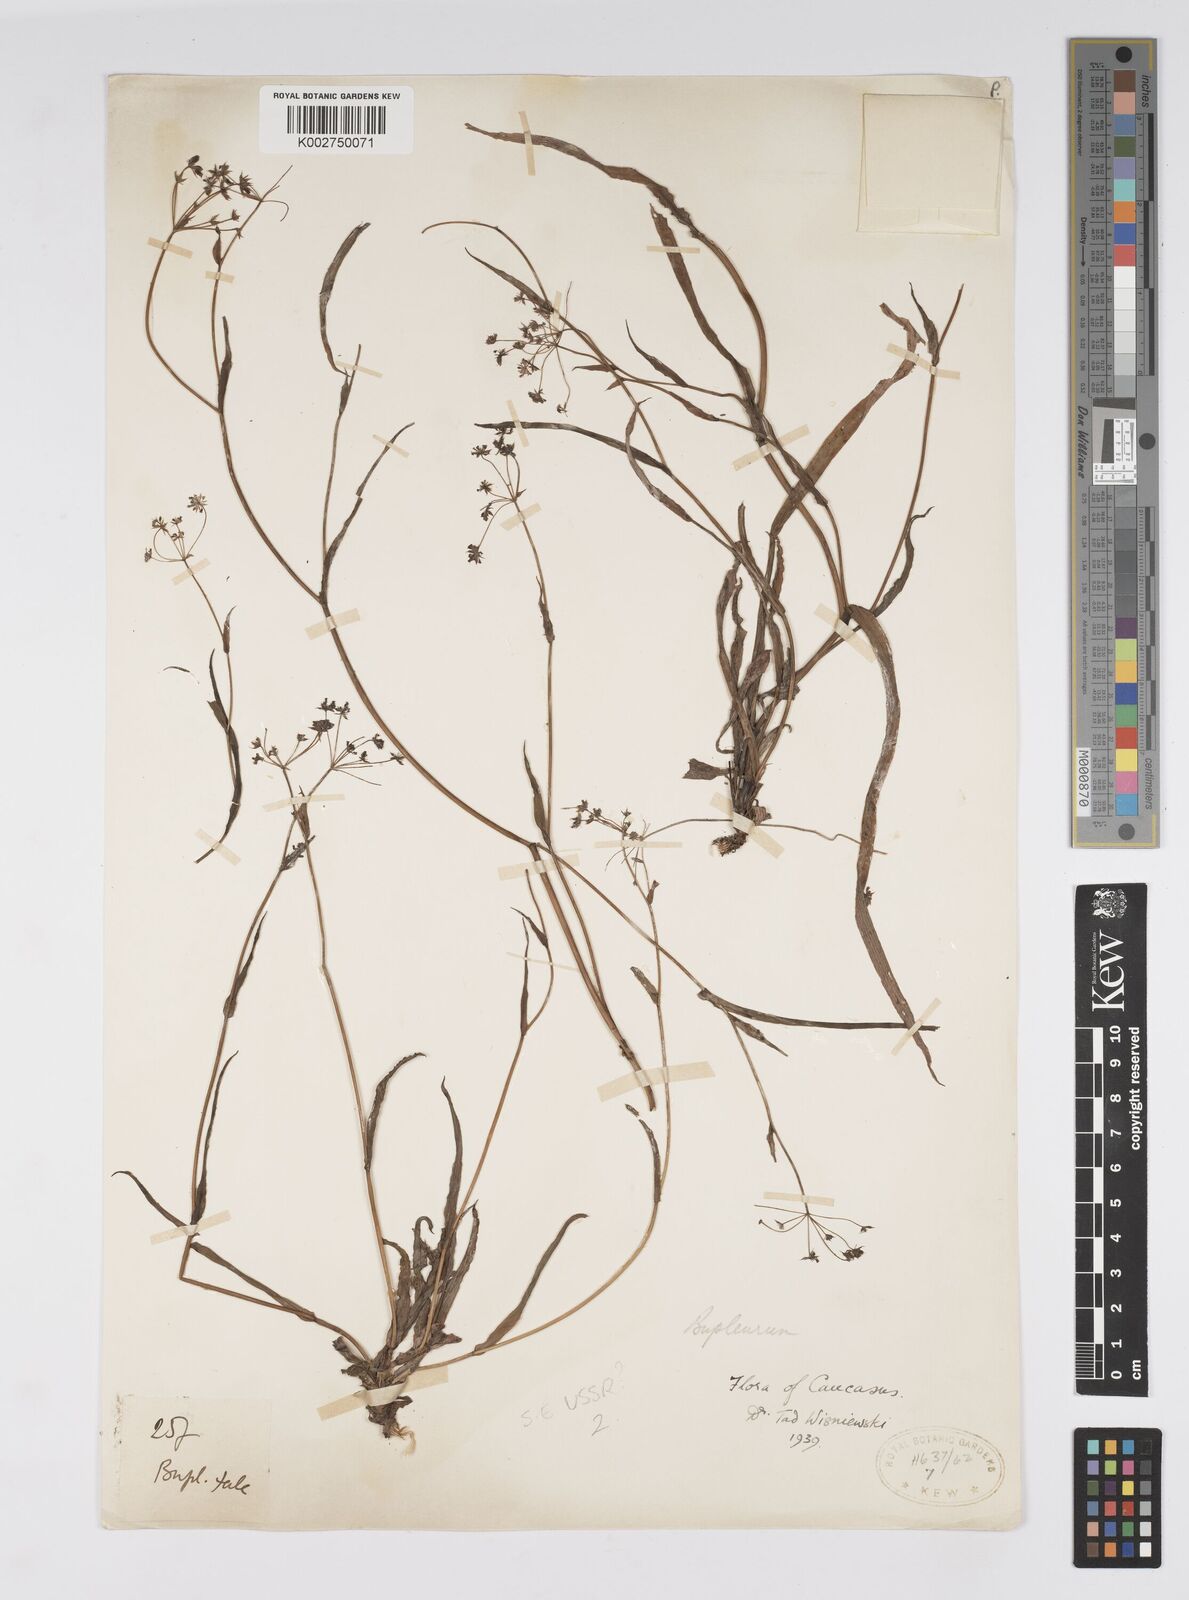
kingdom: Plantae
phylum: Tracheophyta
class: Magnoliopsida
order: Apiales
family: Apiaceae
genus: Bupleurum
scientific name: Bupleurum
